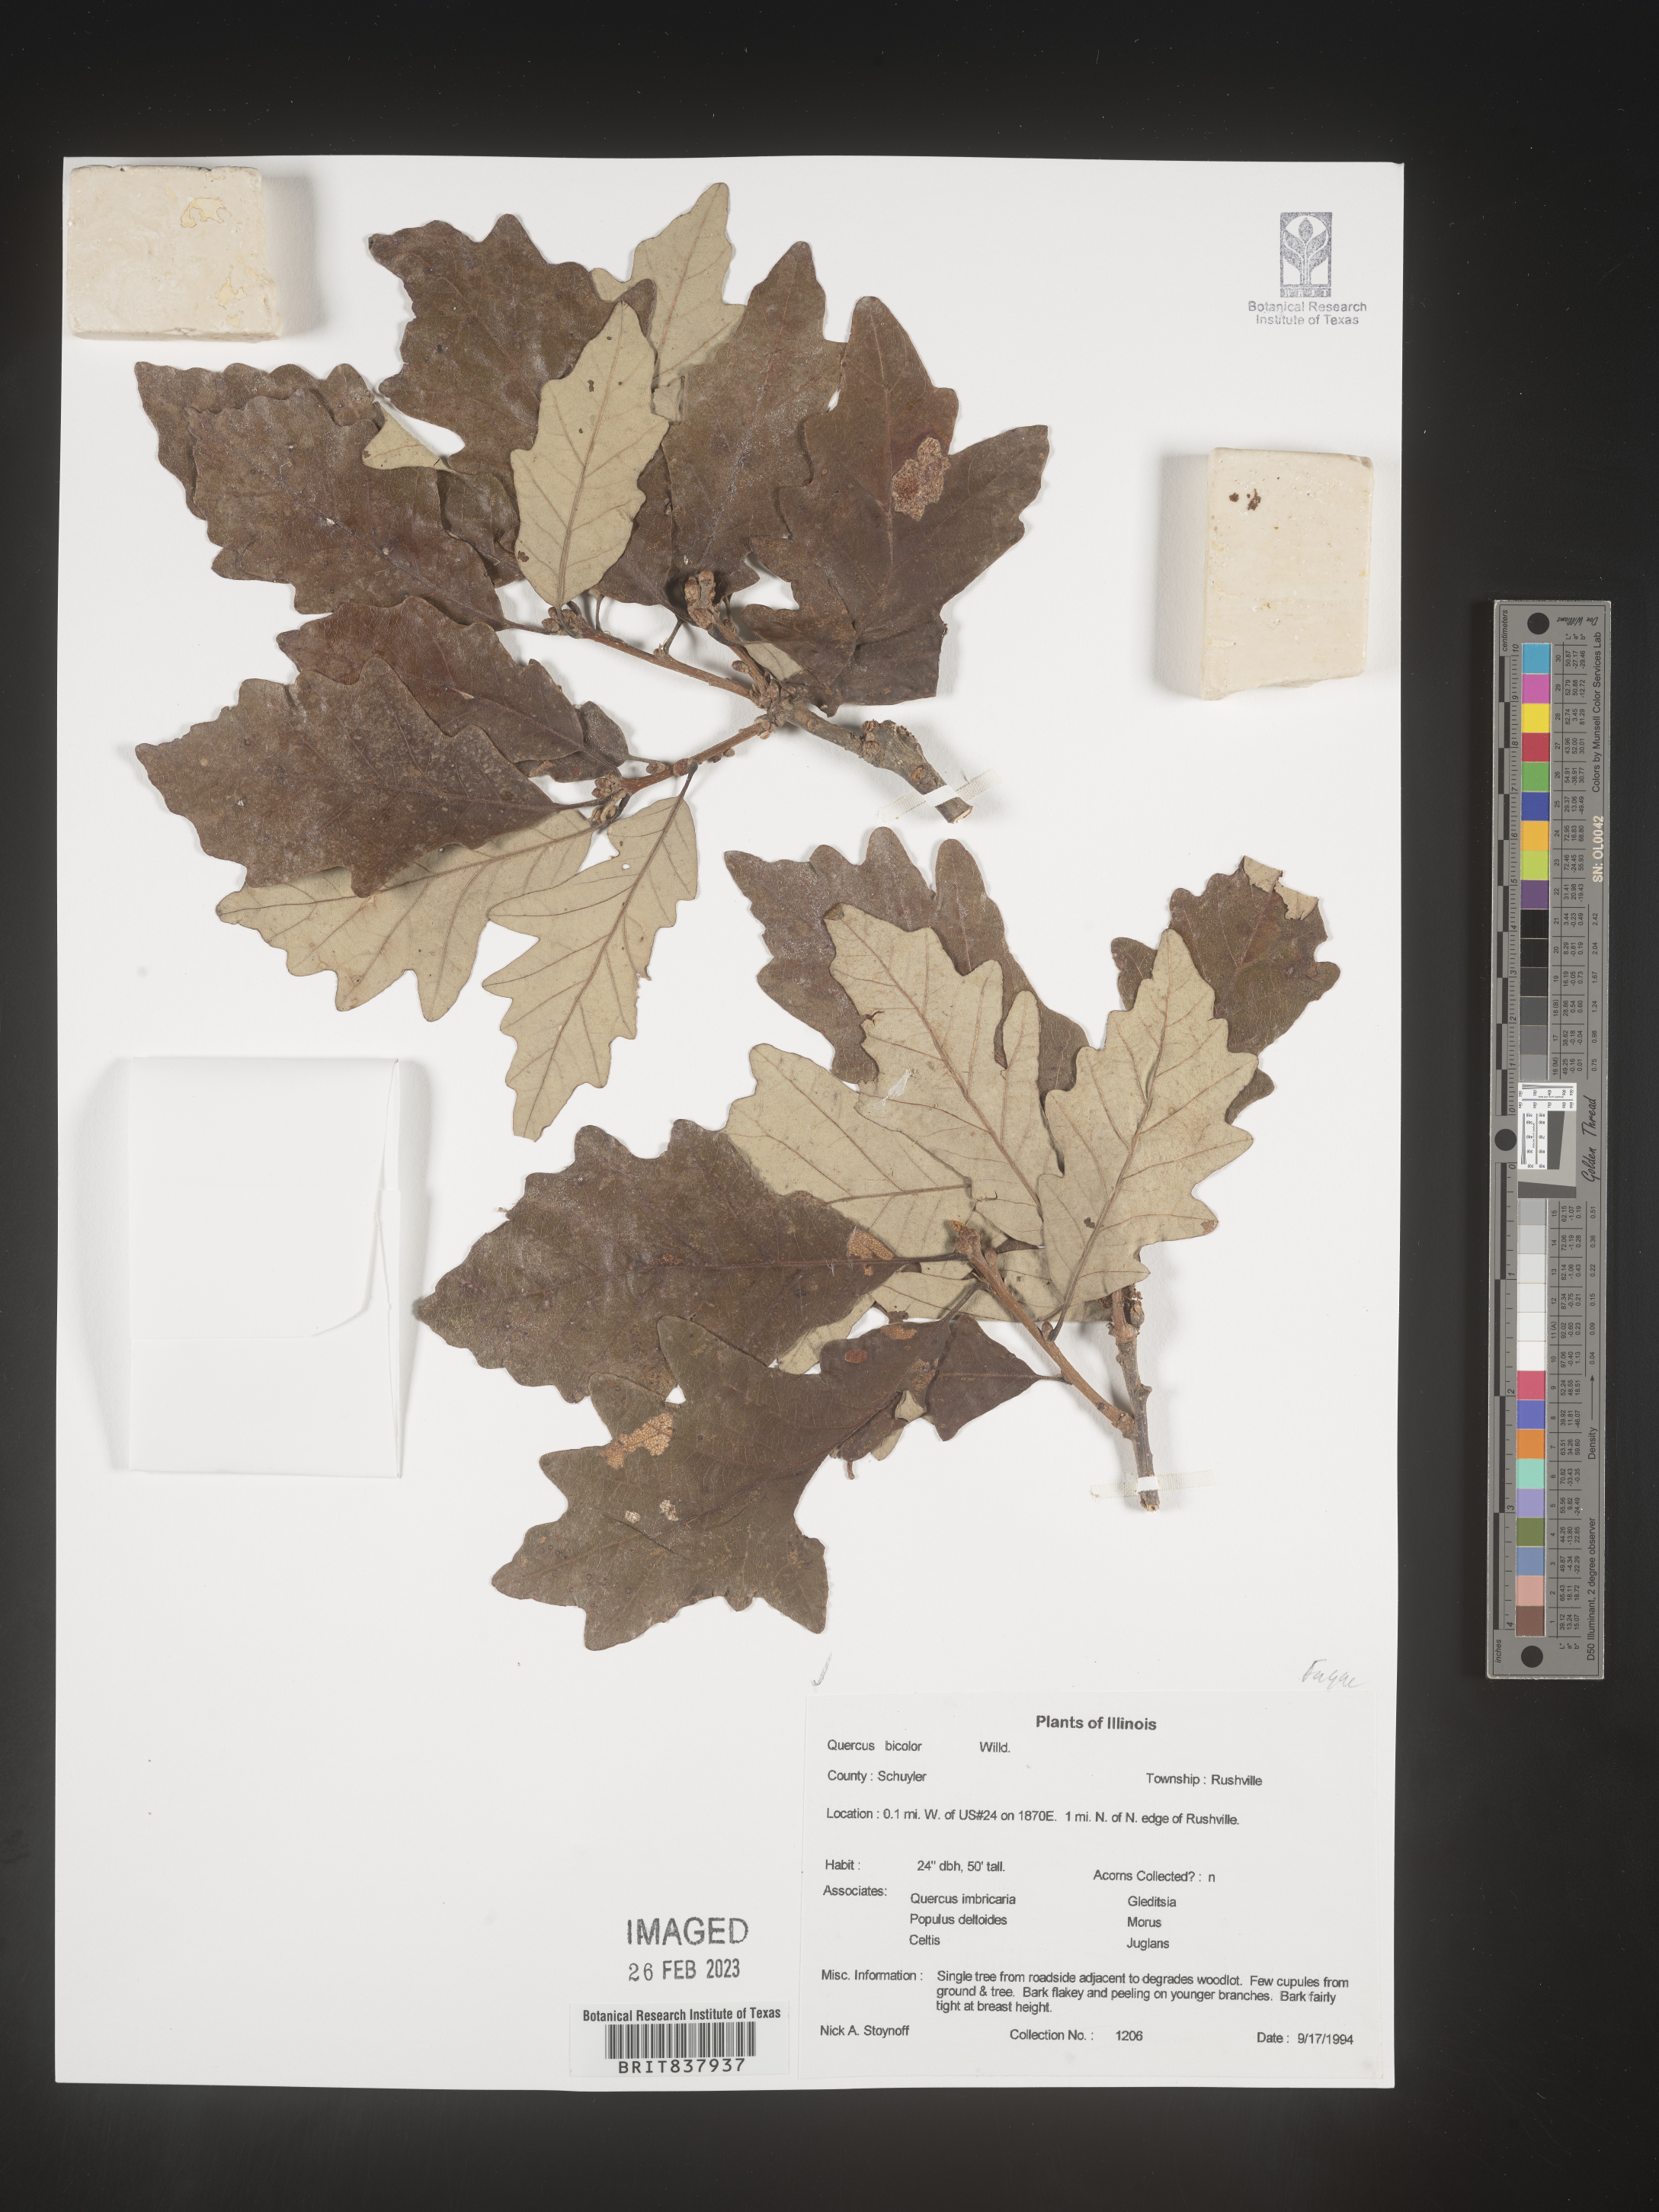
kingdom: Plantae
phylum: Tracheophyta
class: Magnoliopsida
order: Fagales
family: Fagaceae
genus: Quercus
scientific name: Quercus bicolor
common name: Swamp white oak
